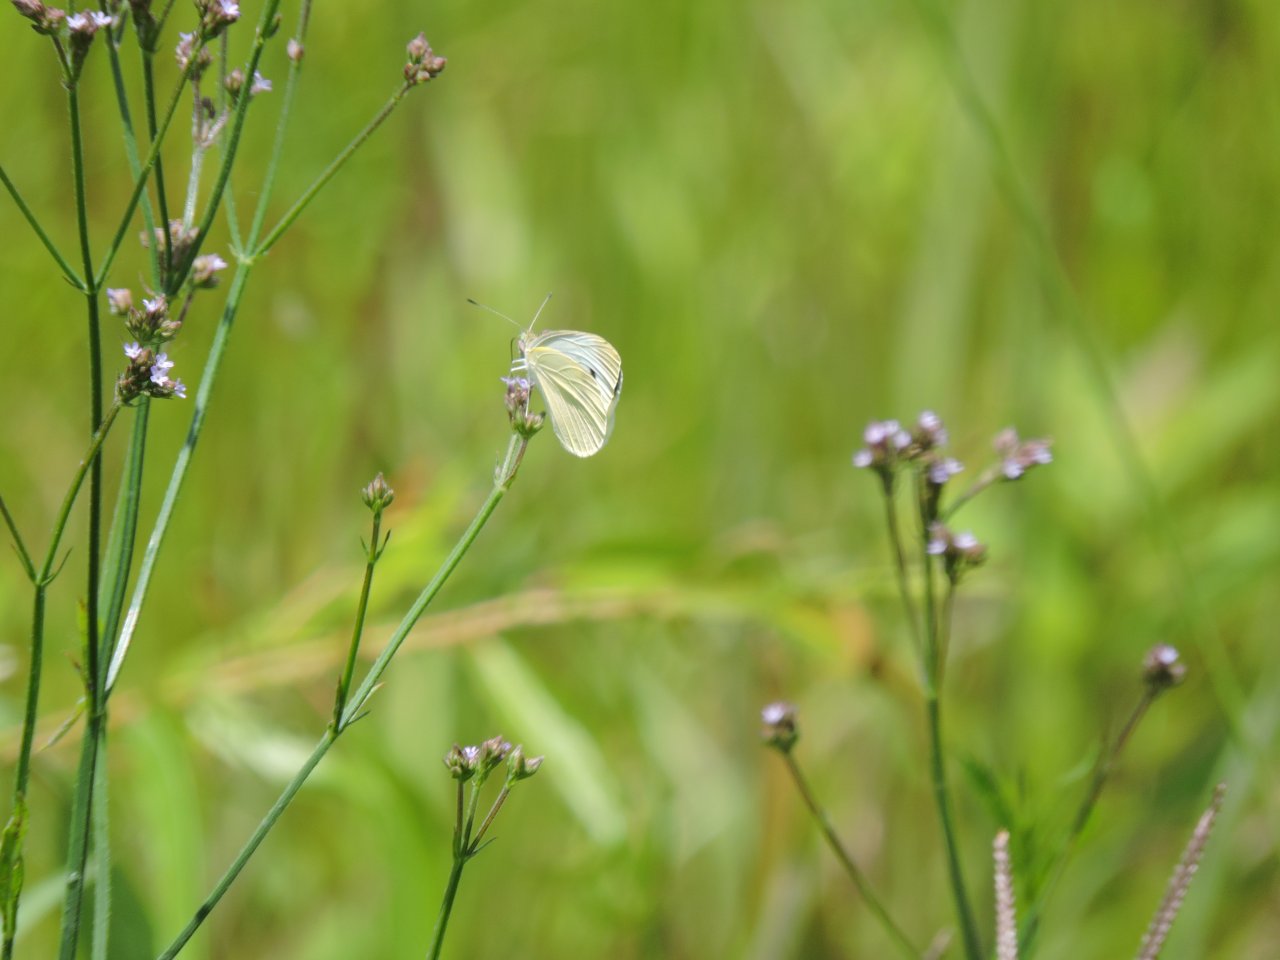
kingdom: Animalia
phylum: Arthropoda
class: Insecta
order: Lepidoptera
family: Pieridae
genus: Pieris
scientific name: Pieris rapae
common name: Cabbage White
